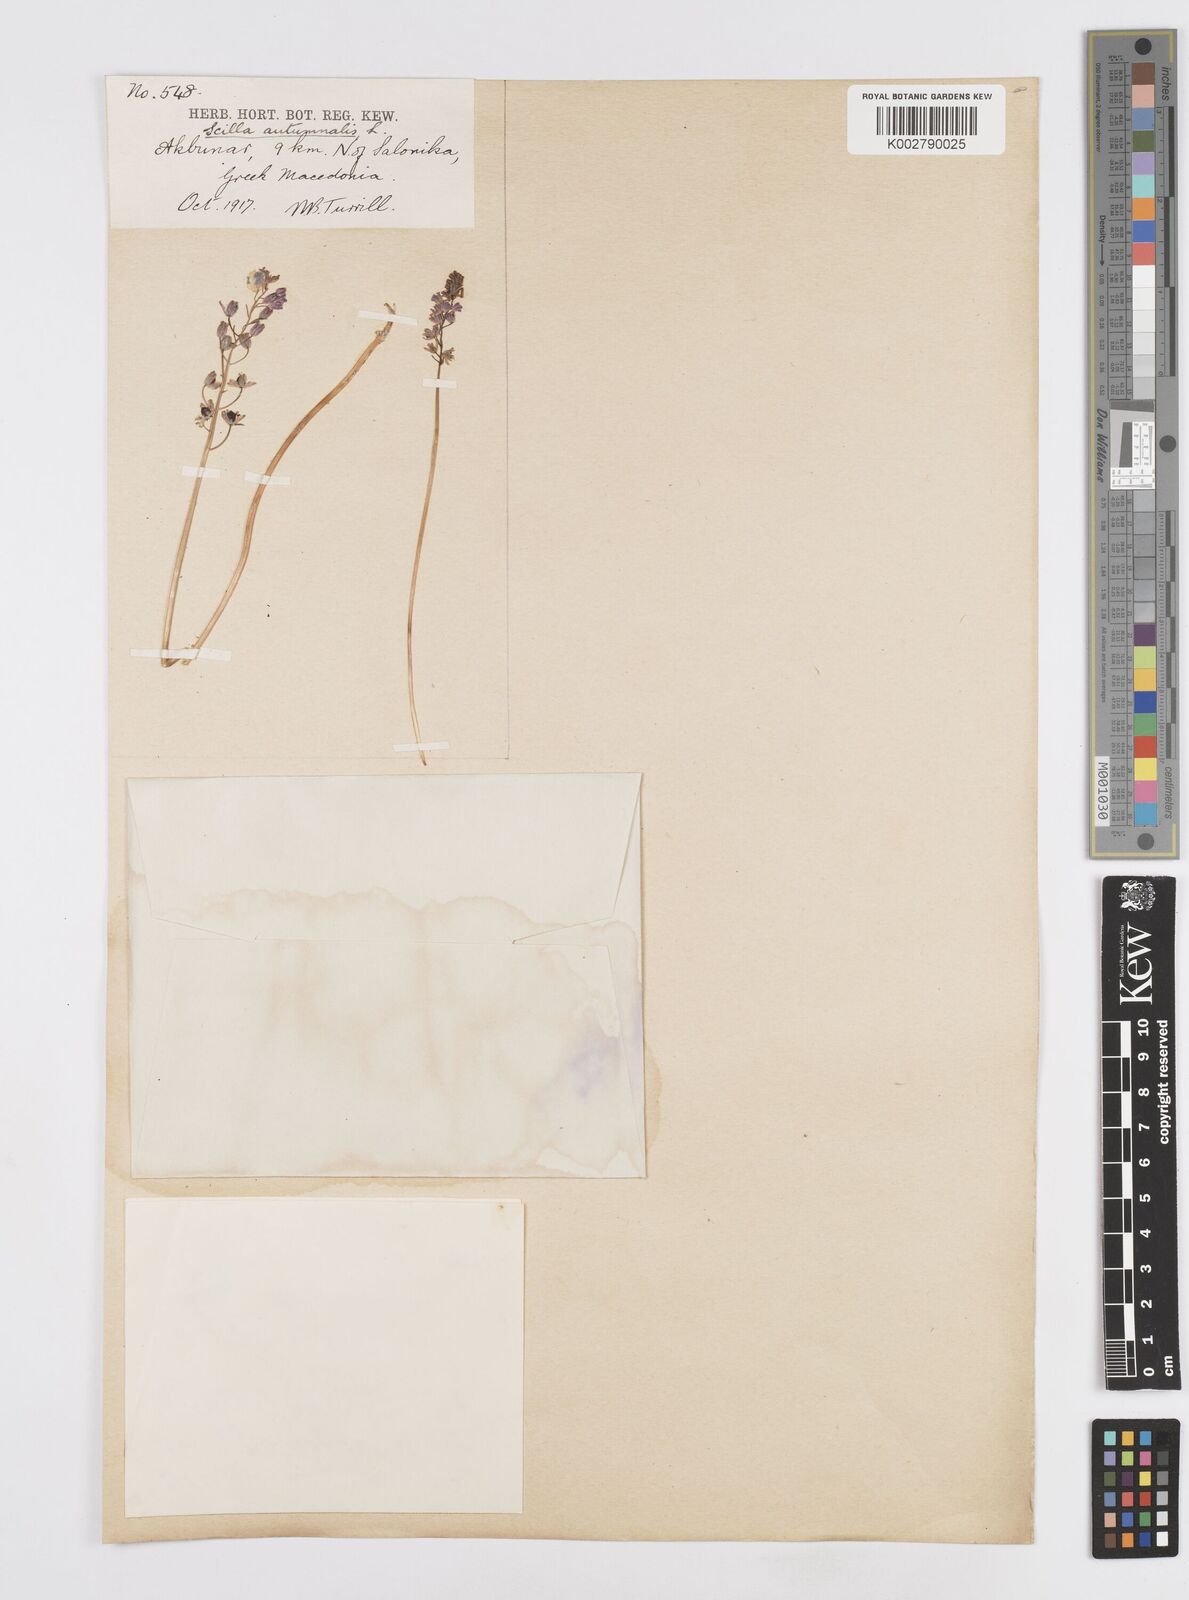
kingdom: Plantae
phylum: Tracheophyta
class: Liliopsida
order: Asparagales
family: Asparagaceae
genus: Prospero
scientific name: Prospero autumnale
